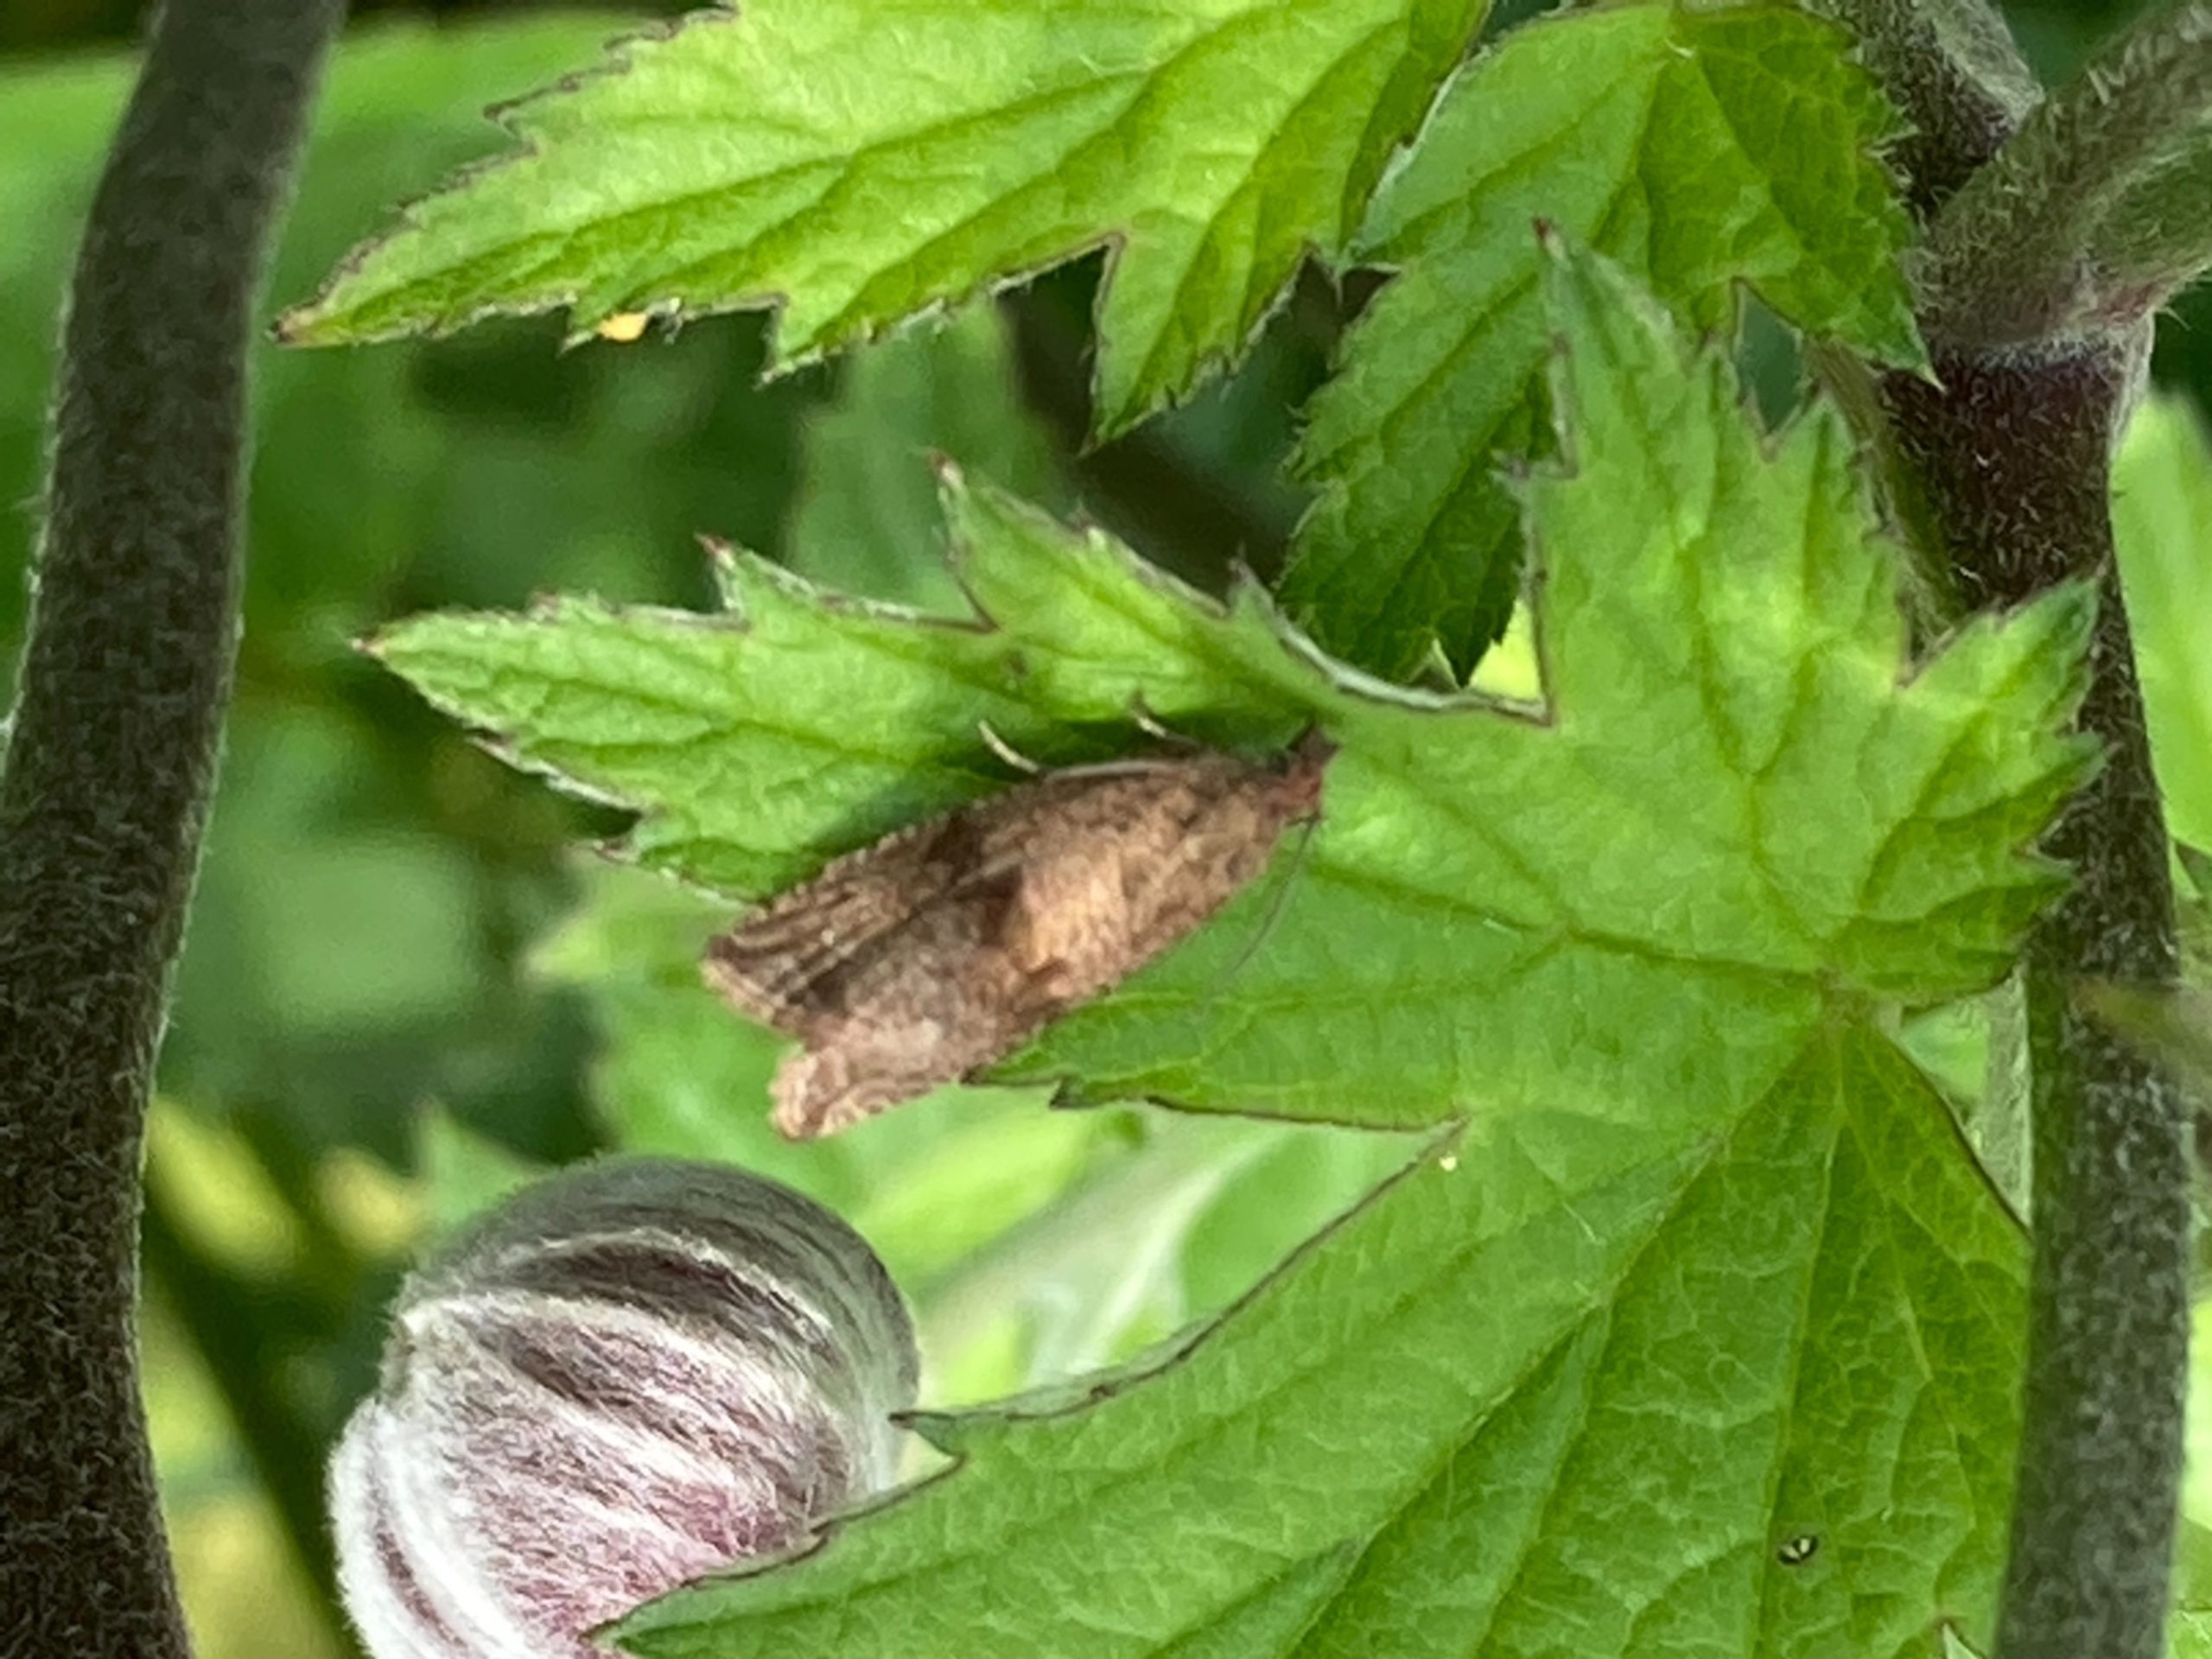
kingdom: Animalia
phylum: Arthropoda
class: Insecta
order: Lepidoptera
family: Tortricidae
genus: Celypha
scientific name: Celypha striana
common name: Mælkebøttevikler
